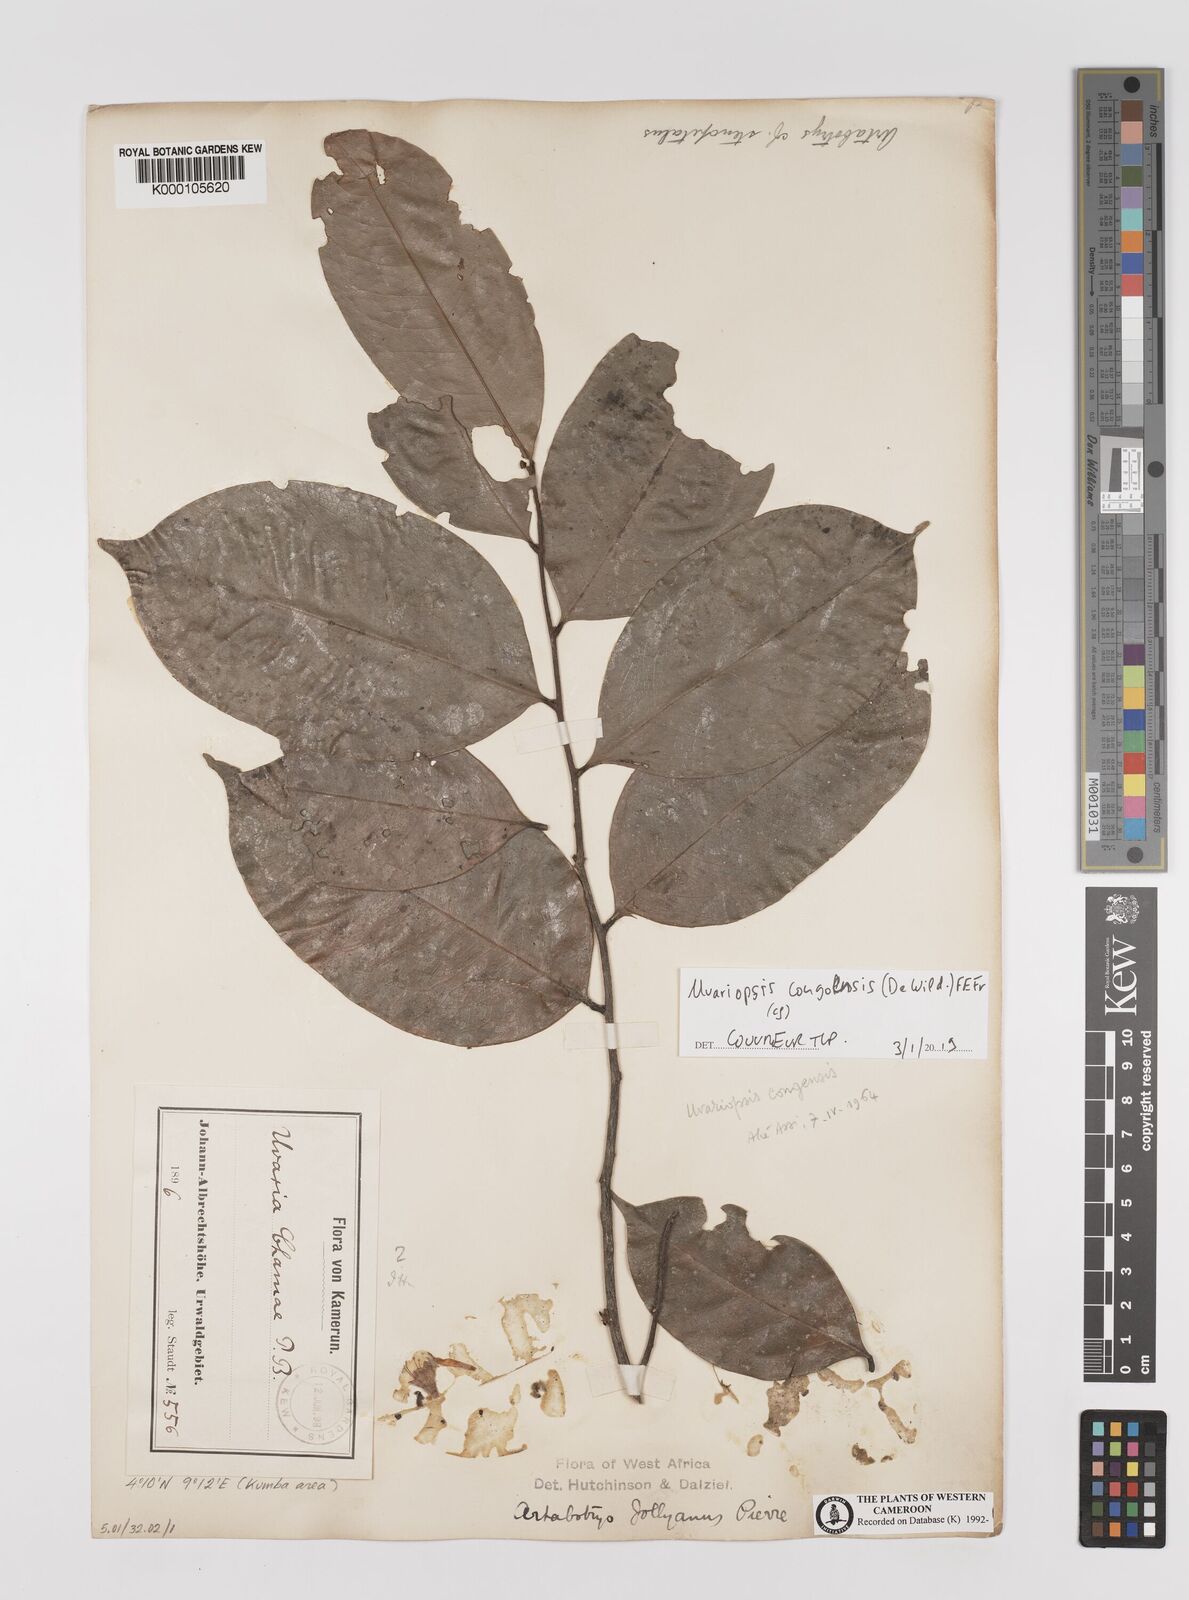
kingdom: Plantae
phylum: Tracheophyta
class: Magnoliopsida
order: Magnoliales
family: Annonaceae
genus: Uvariopsis
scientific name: Uvariopsis
